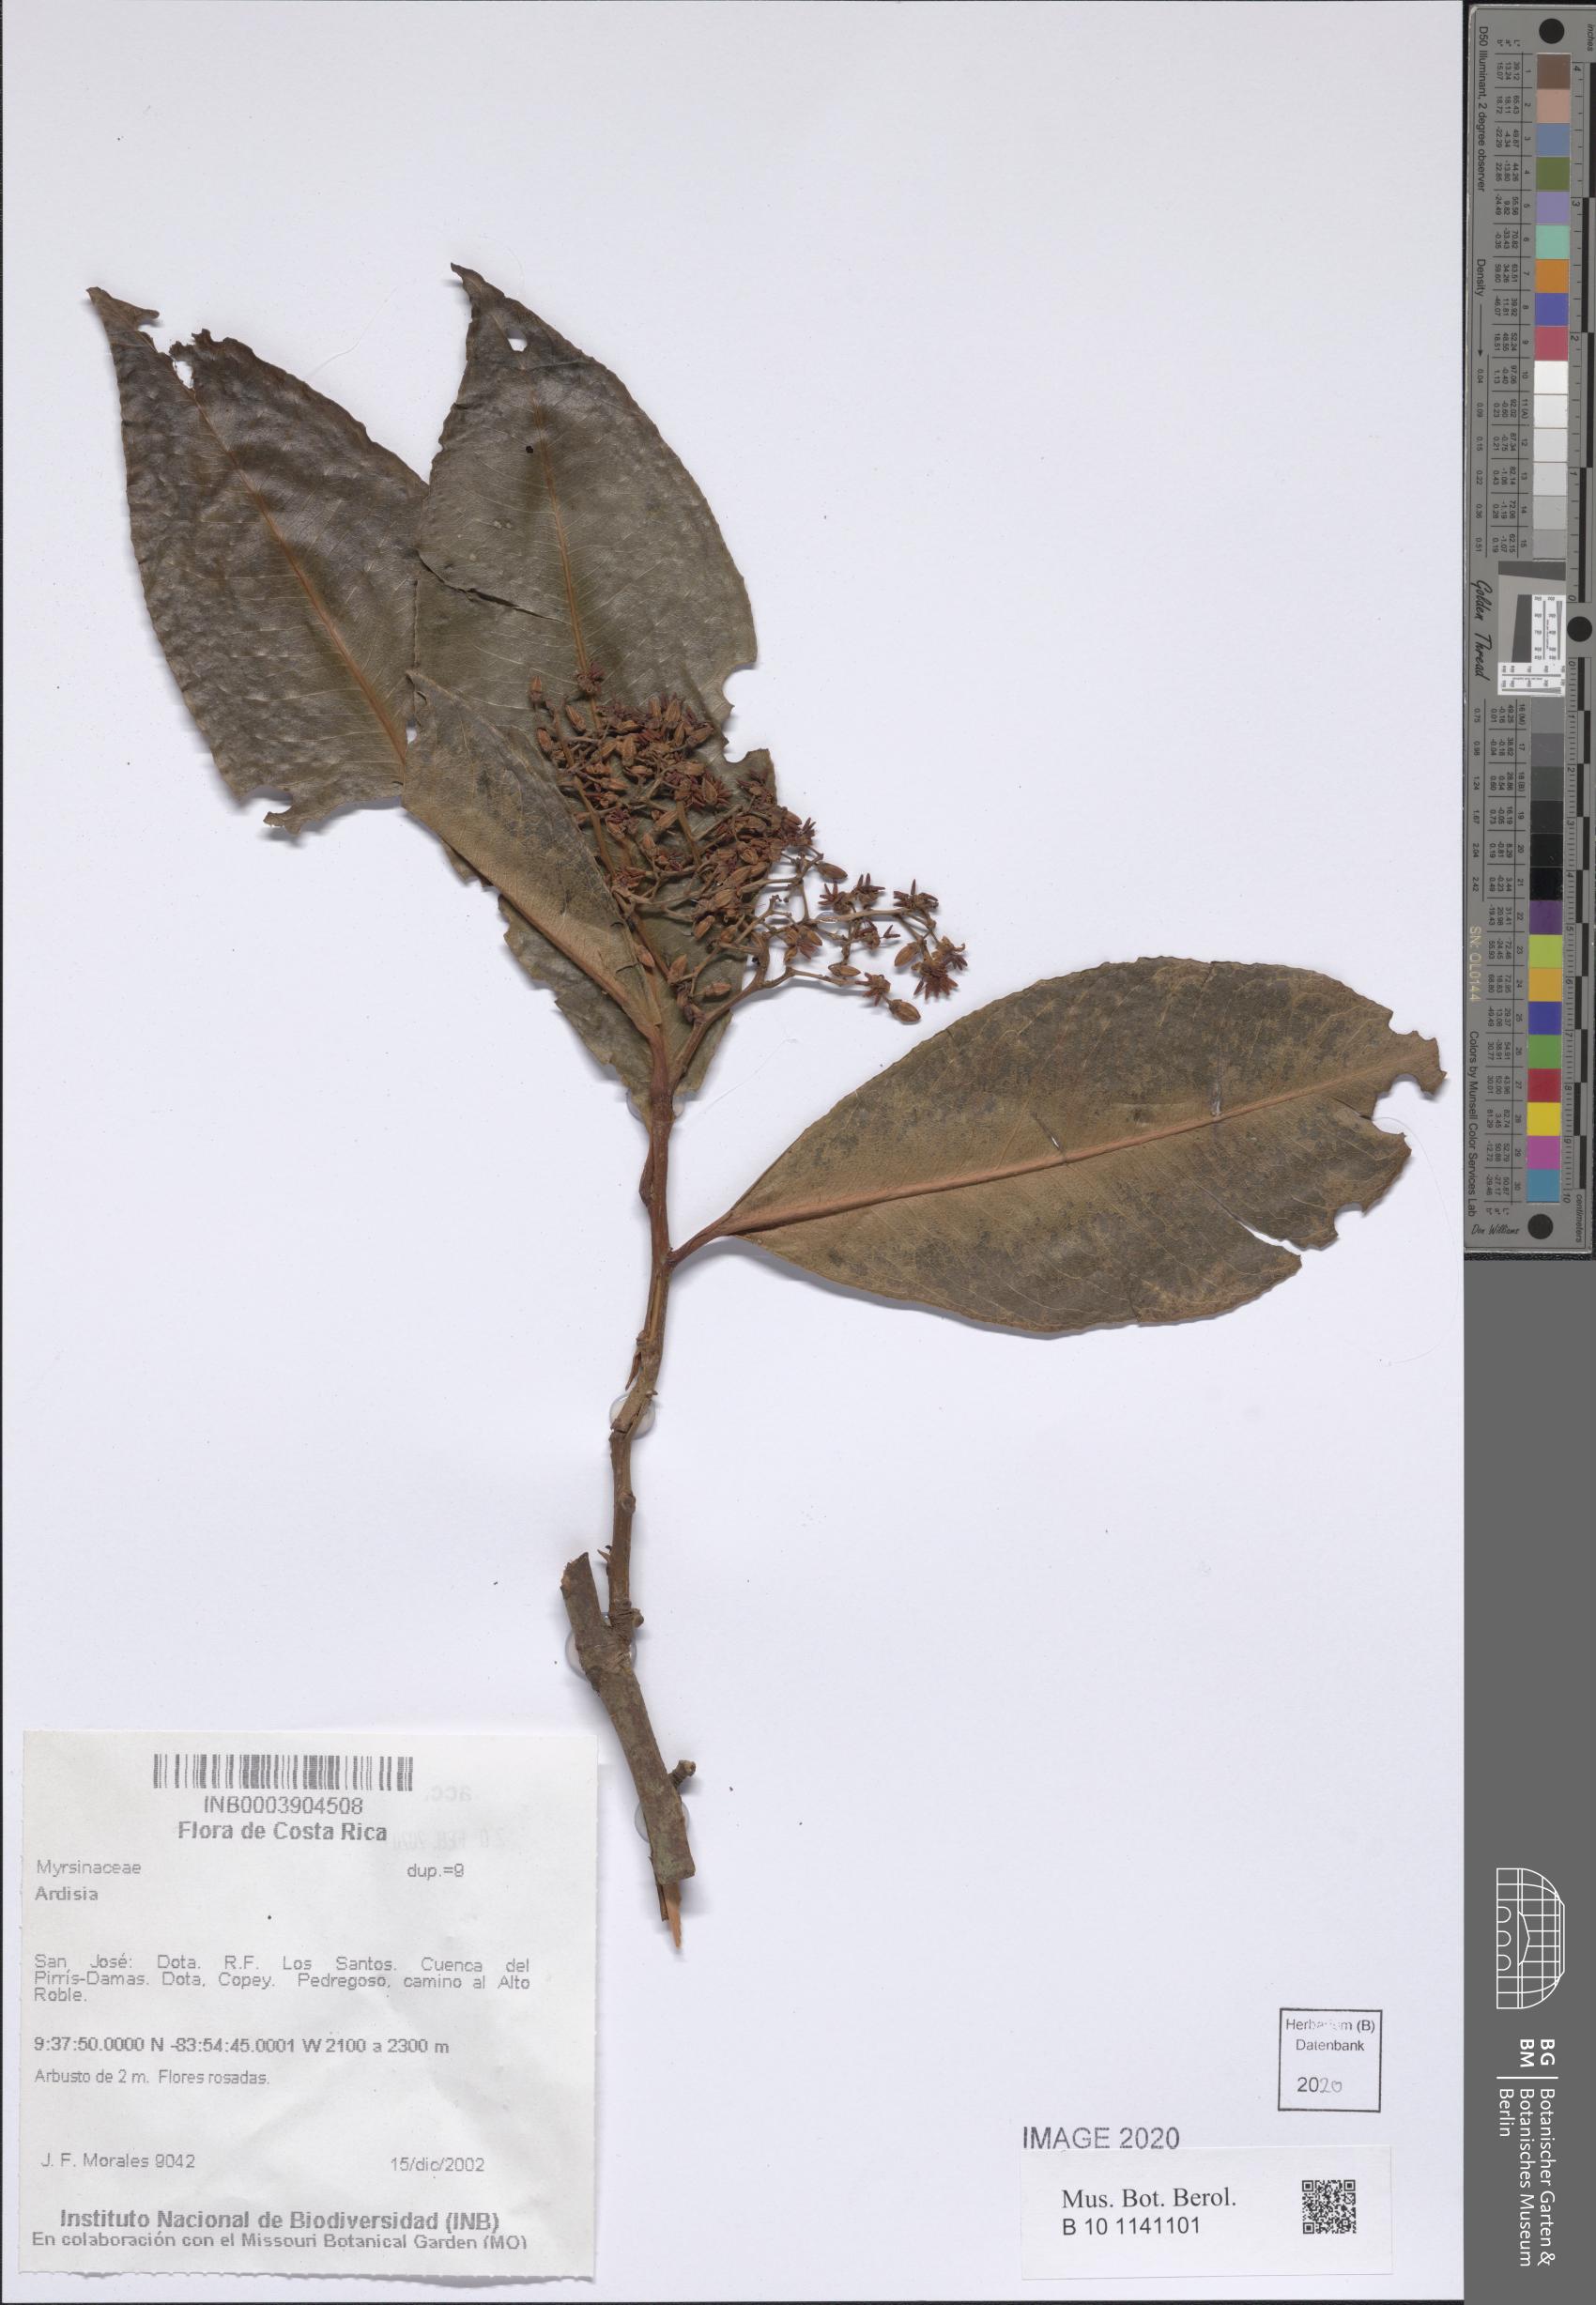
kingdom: Plantae
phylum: Tracheophyta
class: Magnoliopsida
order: Ericales
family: Primulaceae
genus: Ardisia
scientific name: Ardisia
